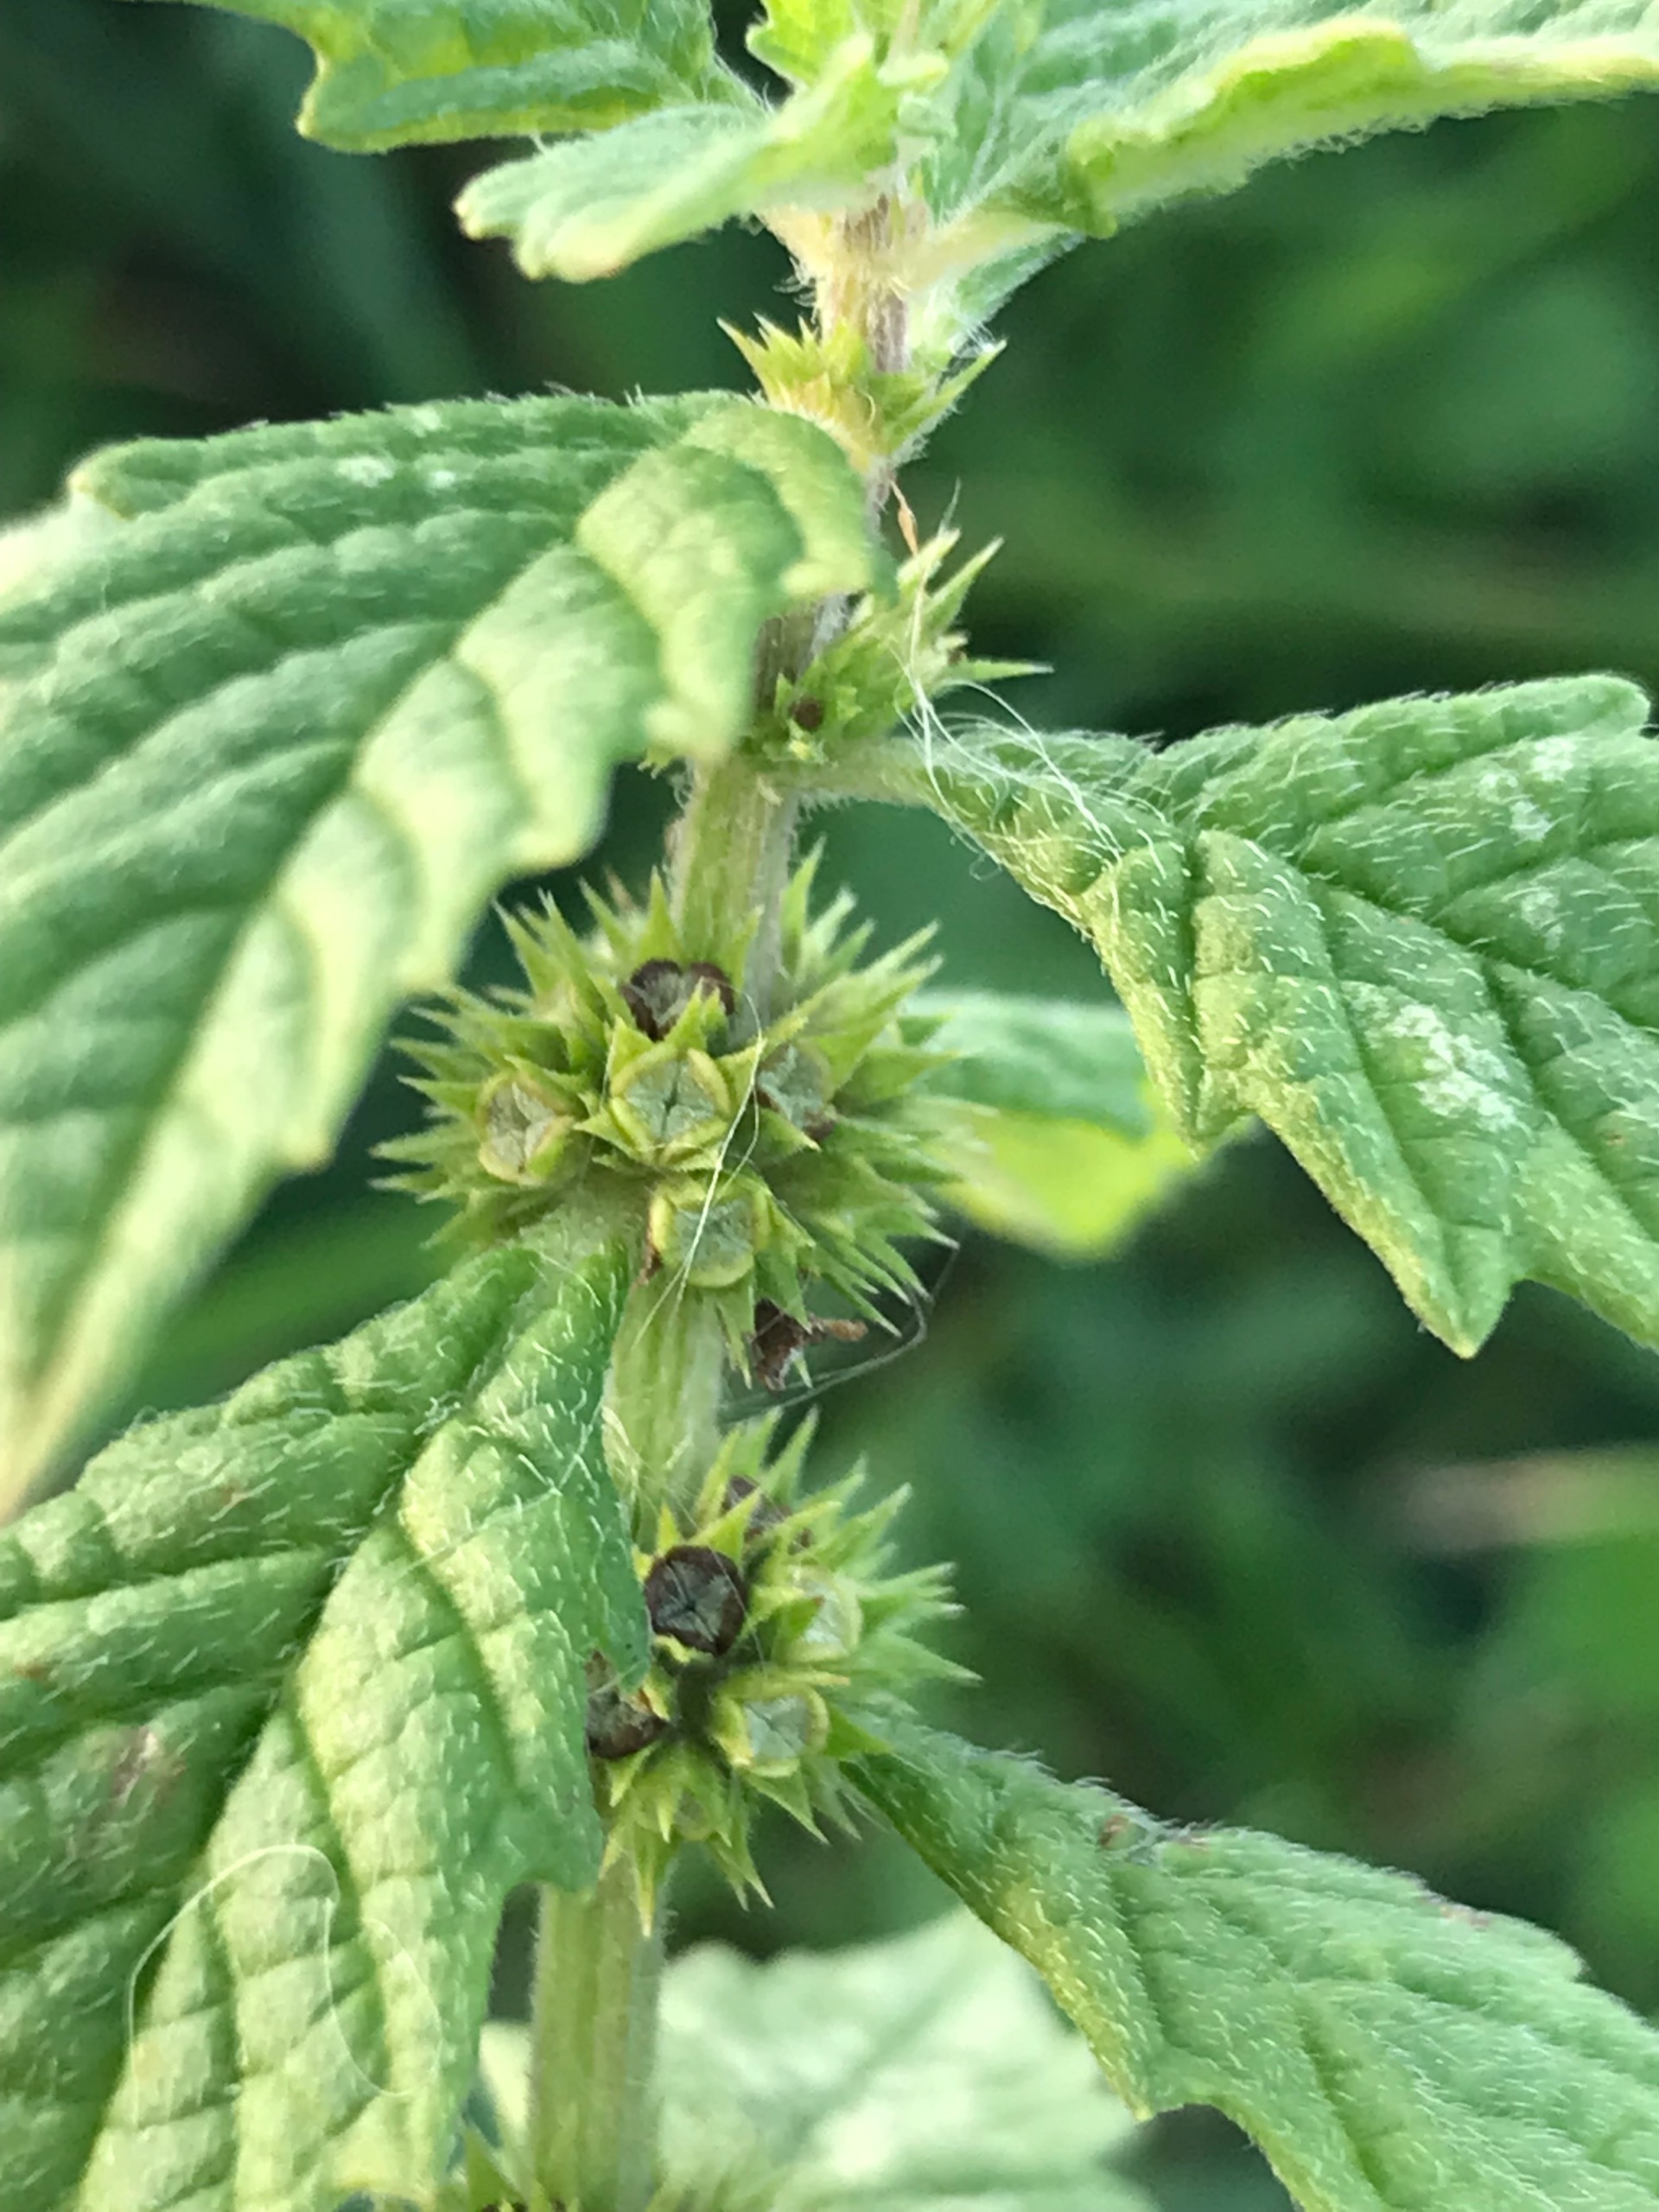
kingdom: Plantae
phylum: Tracheophyta
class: Magnoliopsida
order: Lamiales
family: Lamiaceae
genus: Lycopus
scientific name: Lycopus europaeus
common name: Sværtevæld
